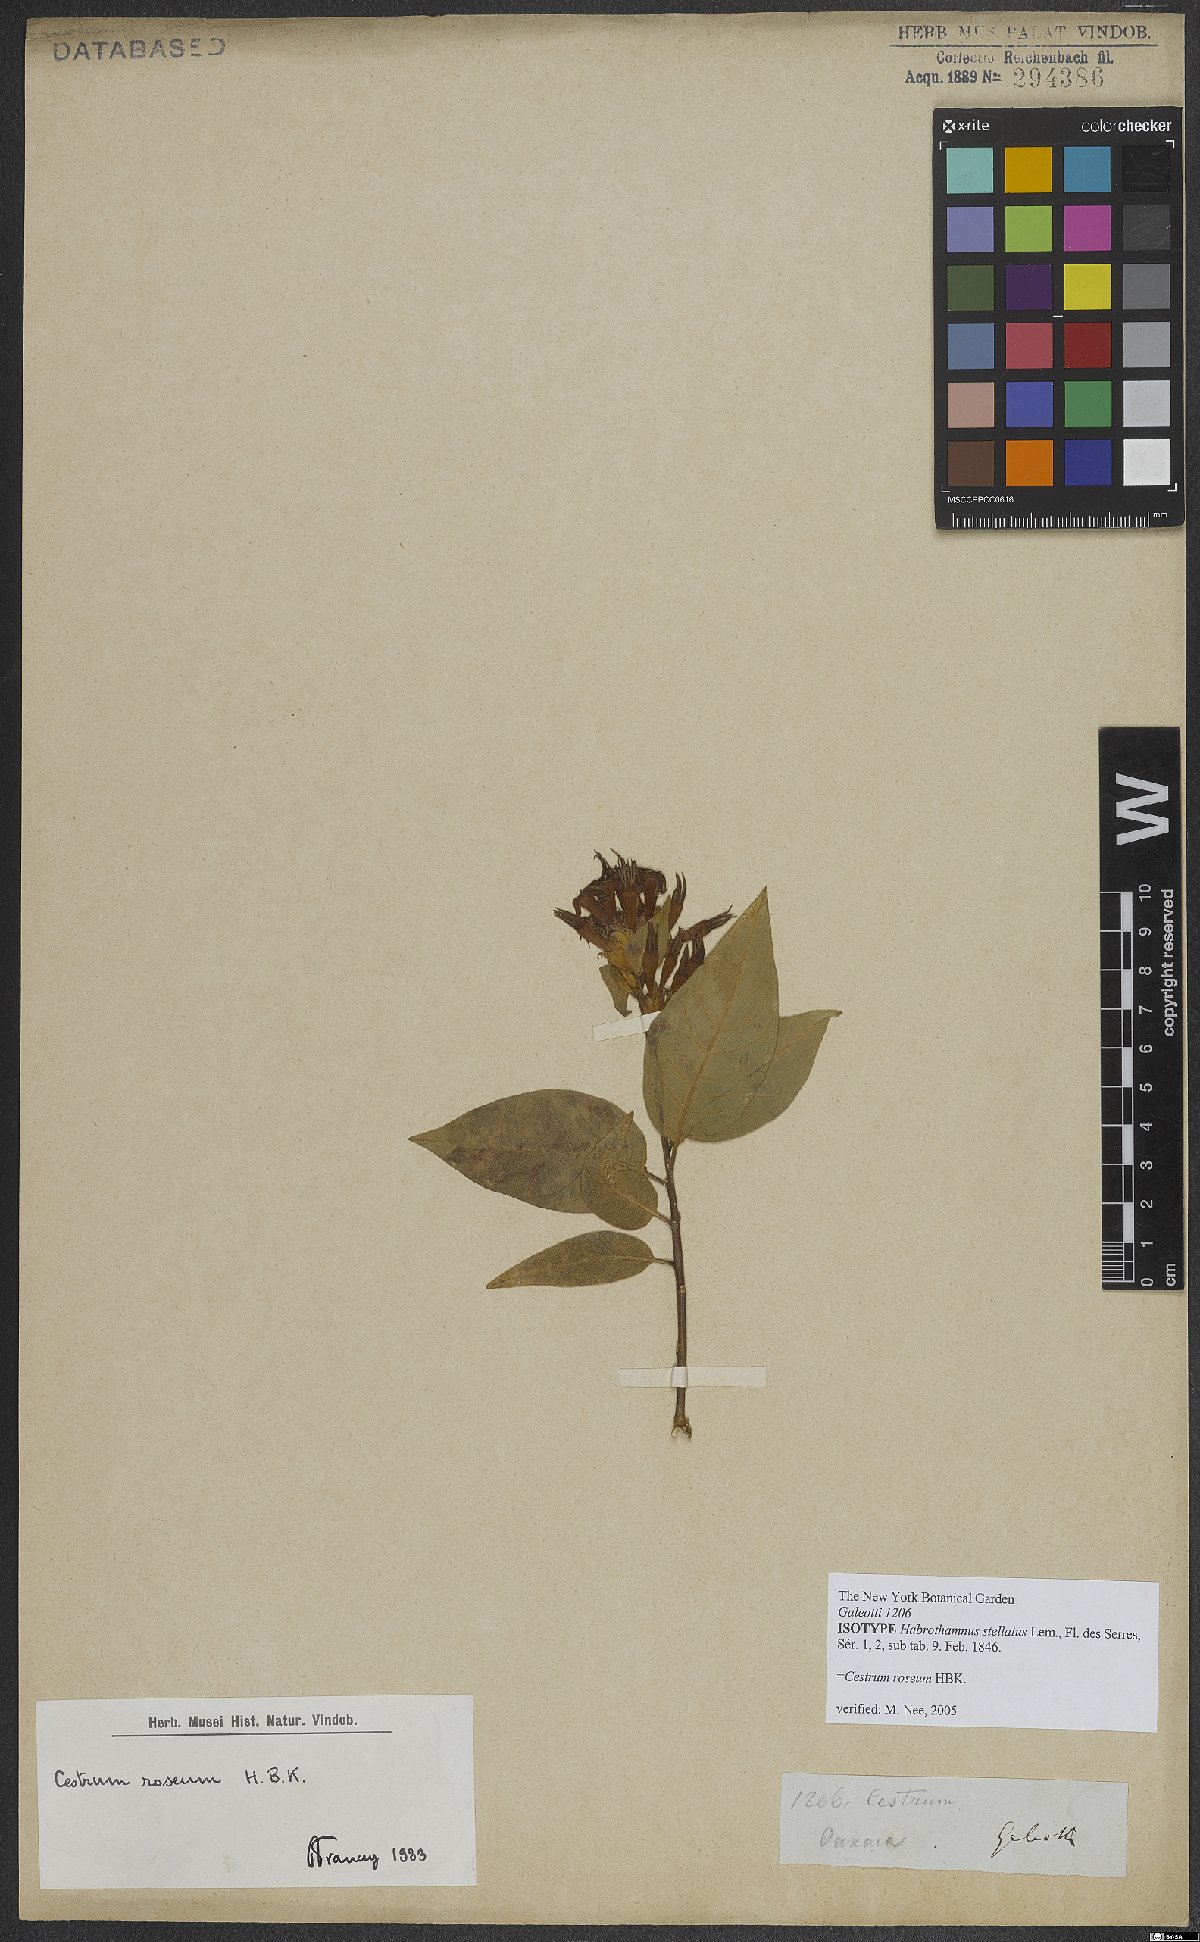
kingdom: Plantae
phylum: Tracheophyta
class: Magnoliopsida
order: Solanales
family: Solanaceae
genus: Cestrum
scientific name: Cestrum roseum
